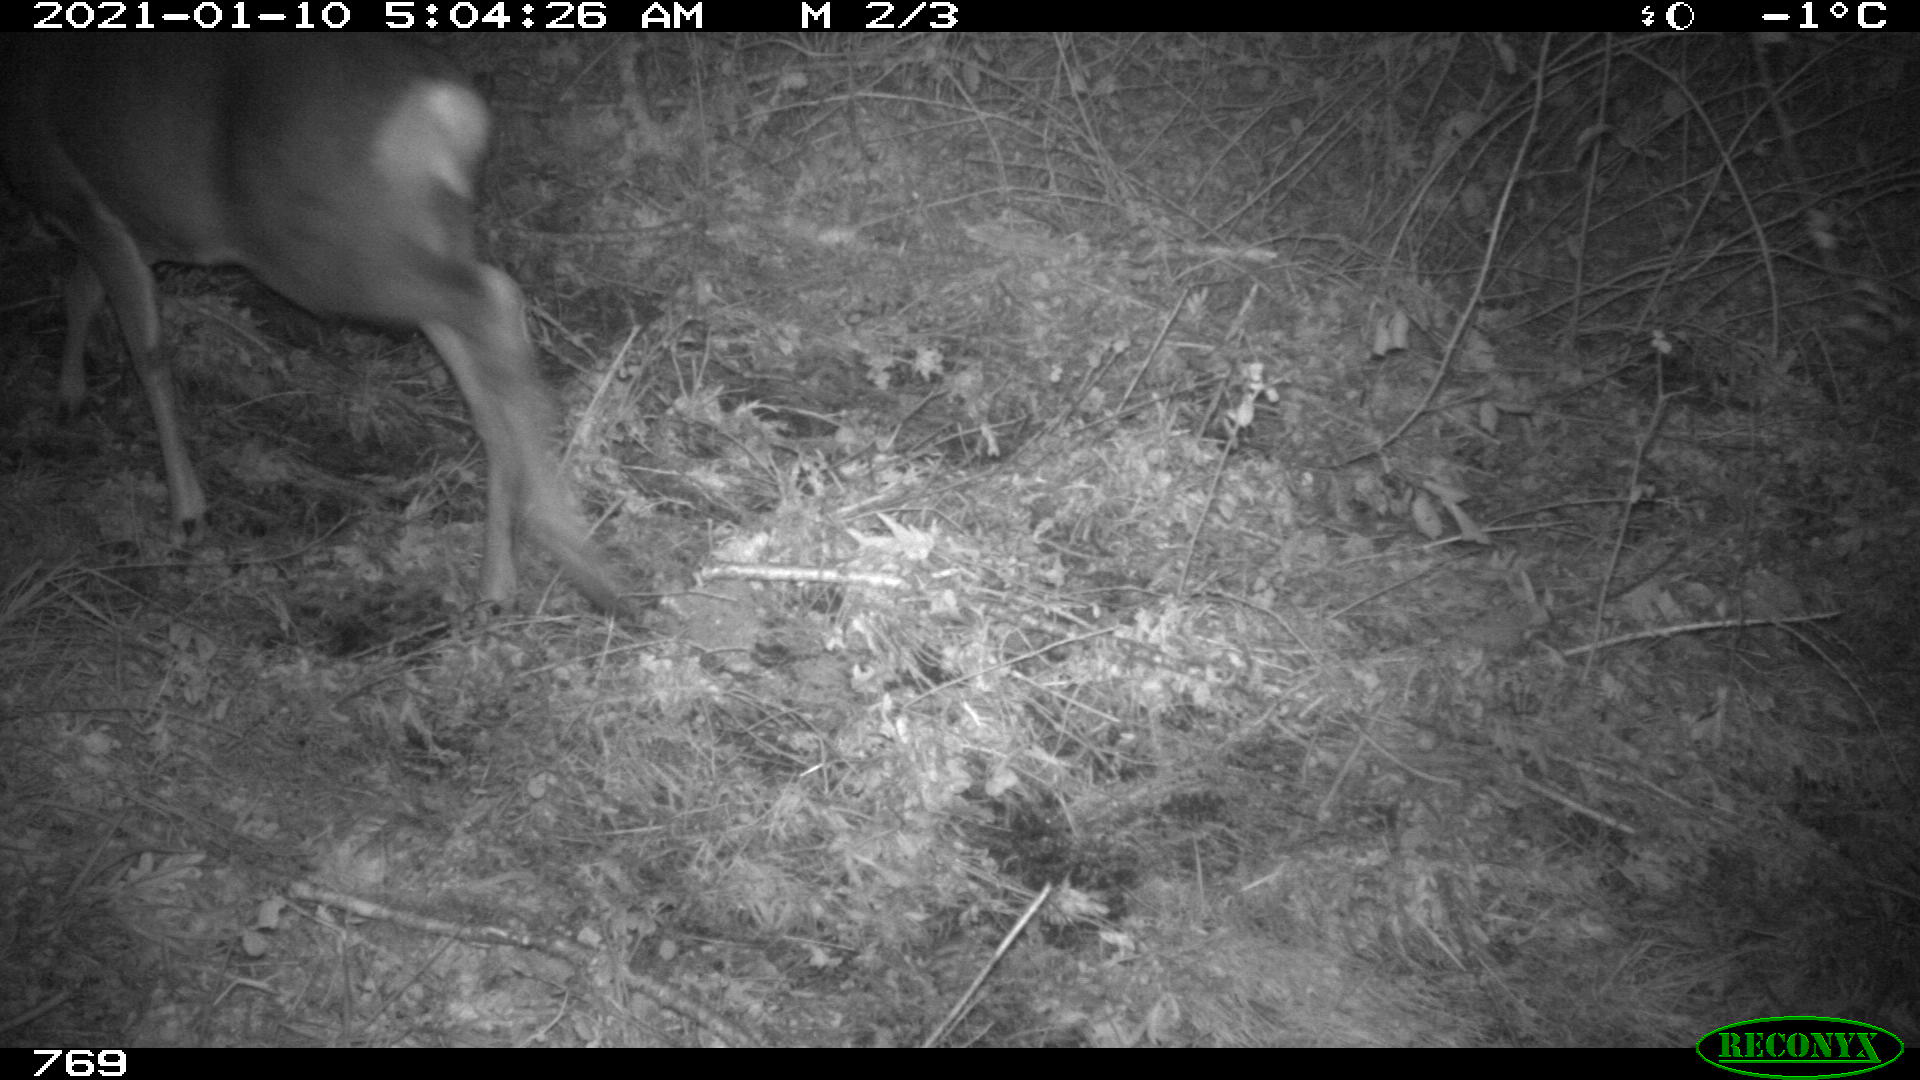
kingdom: Animalia
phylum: Chordata
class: Mammalia
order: Artiodactyla
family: Cervidae
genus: Capreolus
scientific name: Capreolus capreolus
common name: Western roe deer
